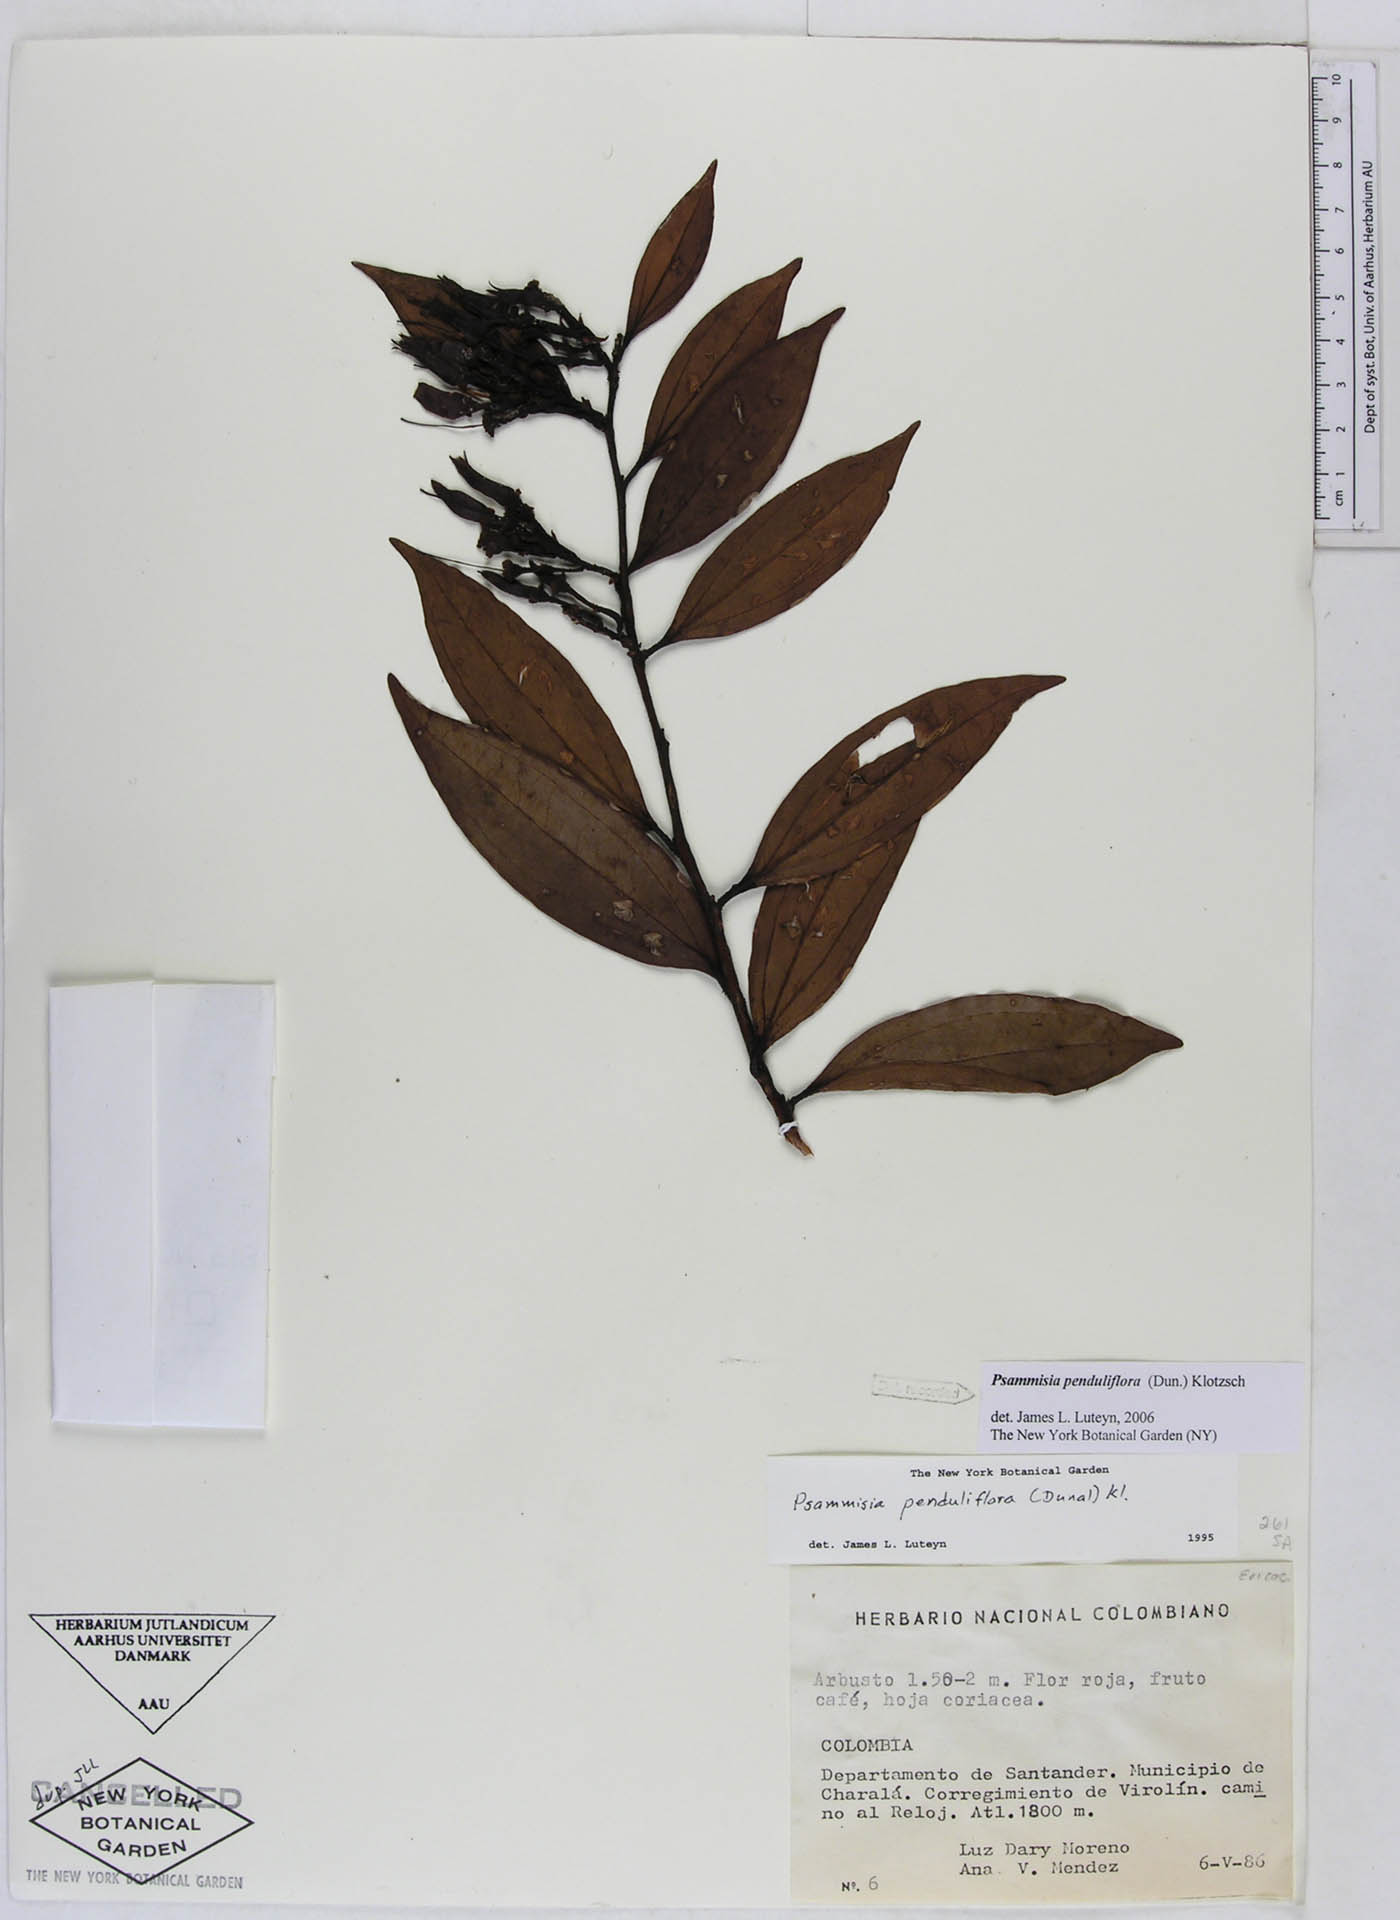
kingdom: Plantae
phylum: Tracheophyta
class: Magnoliopsida
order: Ericales
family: Ericaceae
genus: Psammisia
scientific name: Psammisia penduliflora
